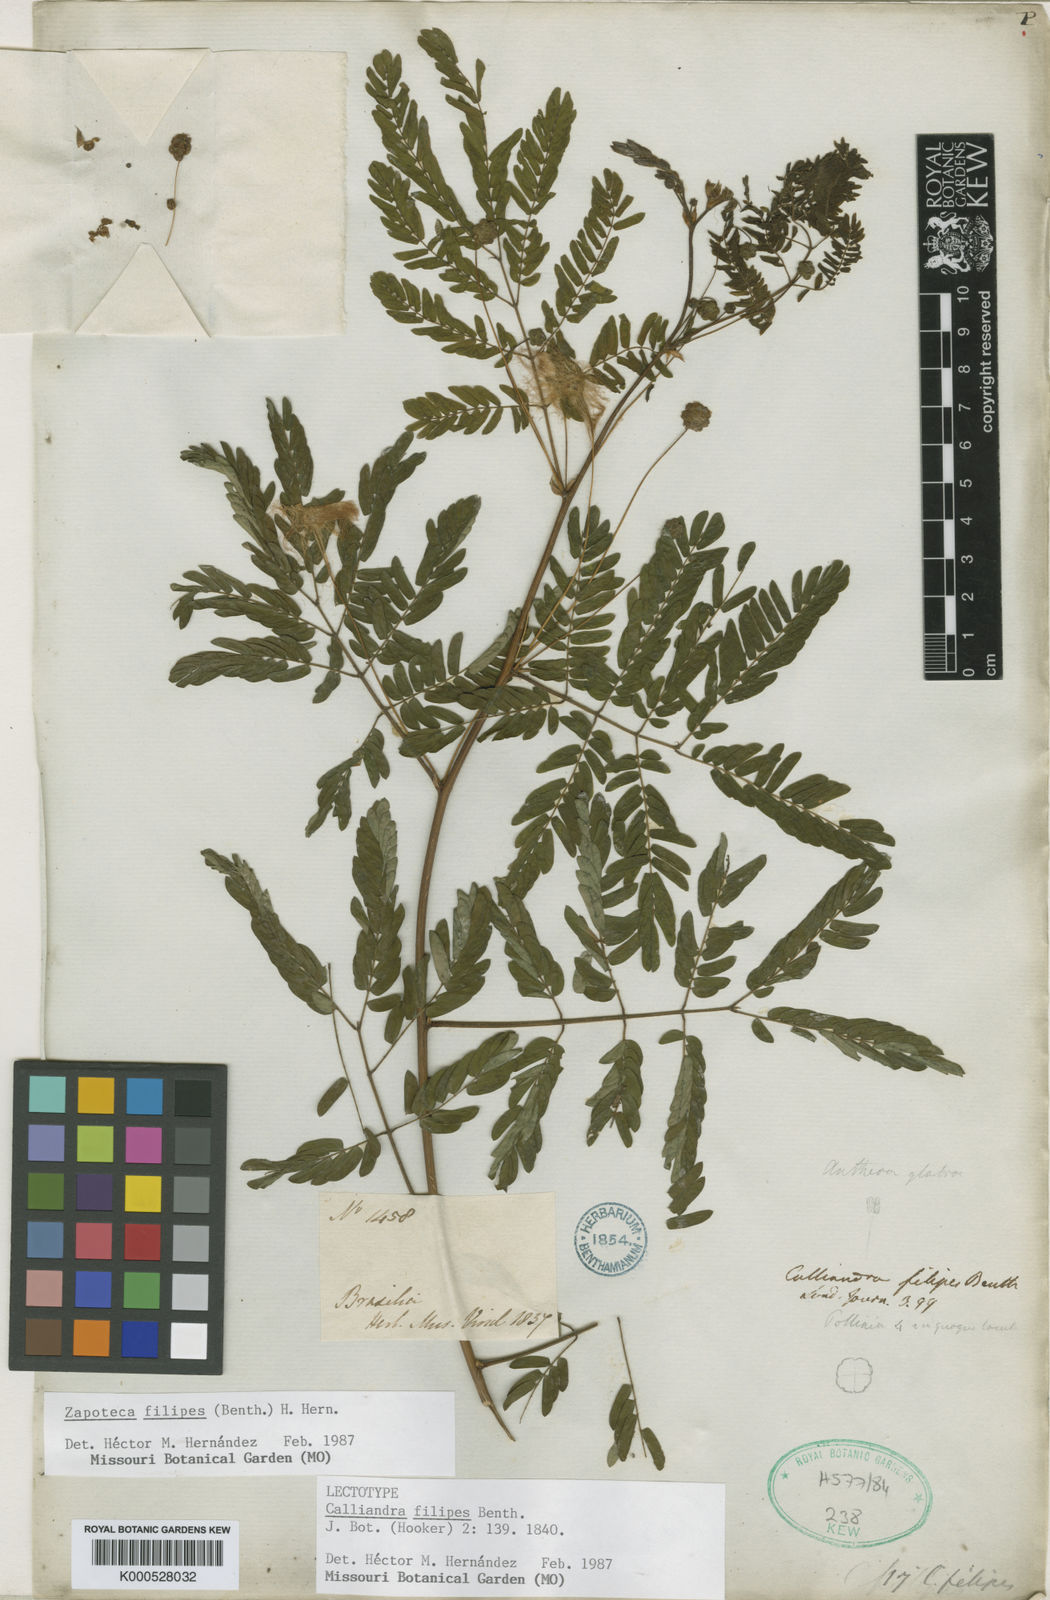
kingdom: Plantae
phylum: Tracheophyta
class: Magnoliopsida
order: Fabales
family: Fabaceae
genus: Zapoteca
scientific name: Zapoteca filipes
